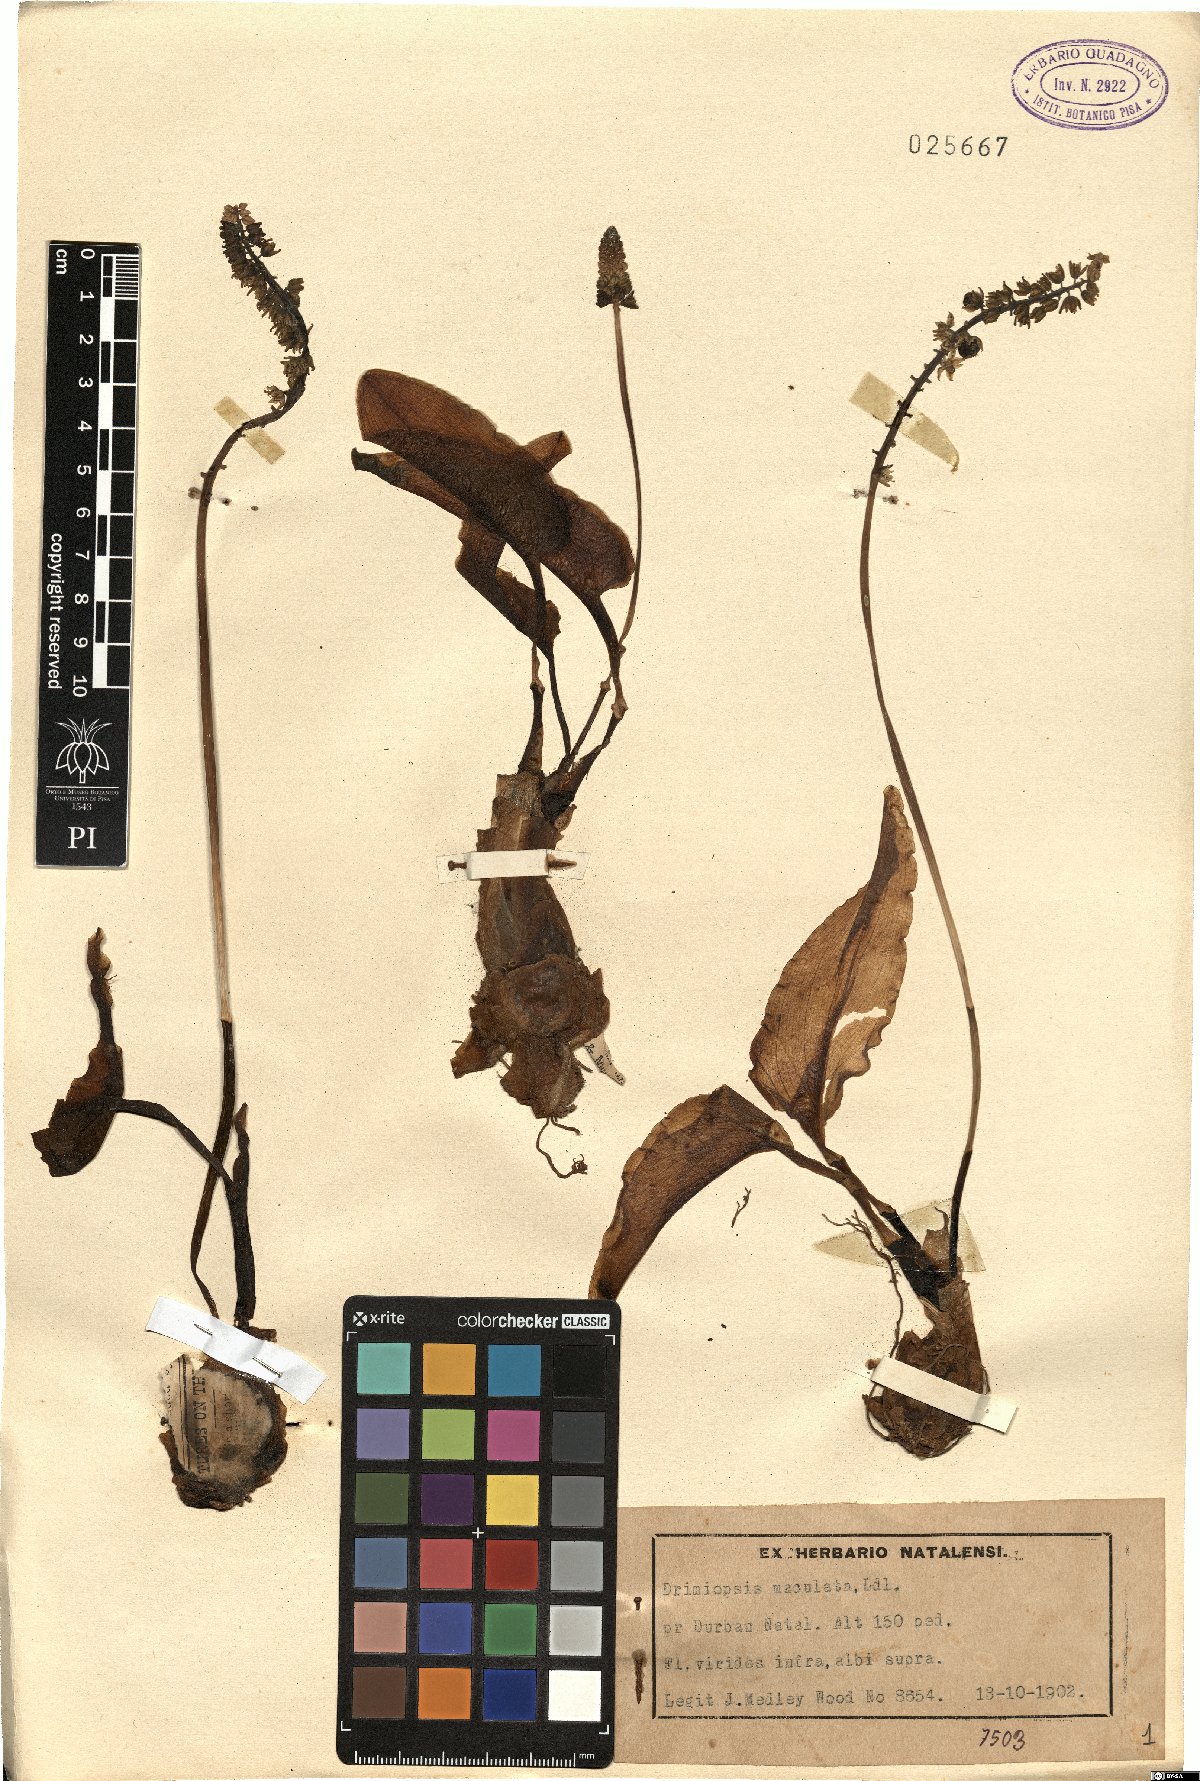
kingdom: Plantae
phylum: Tracheophyta
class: Liliopsida
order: Asparagales
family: Asparagaceae
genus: Drimiopsis
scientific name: Drimiopsis maculata
